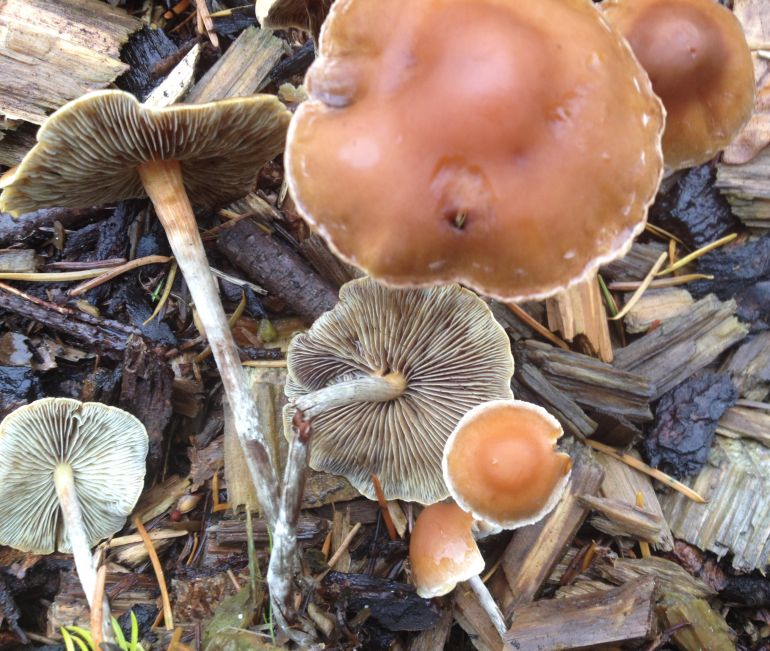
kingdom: Fungi
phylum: Basidiomycota
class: Agaricomycetes
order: Agaricales
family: Strophariaceae
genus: Hypholoma
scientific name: Hypholoma marginatum
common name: enlig svovlhat
